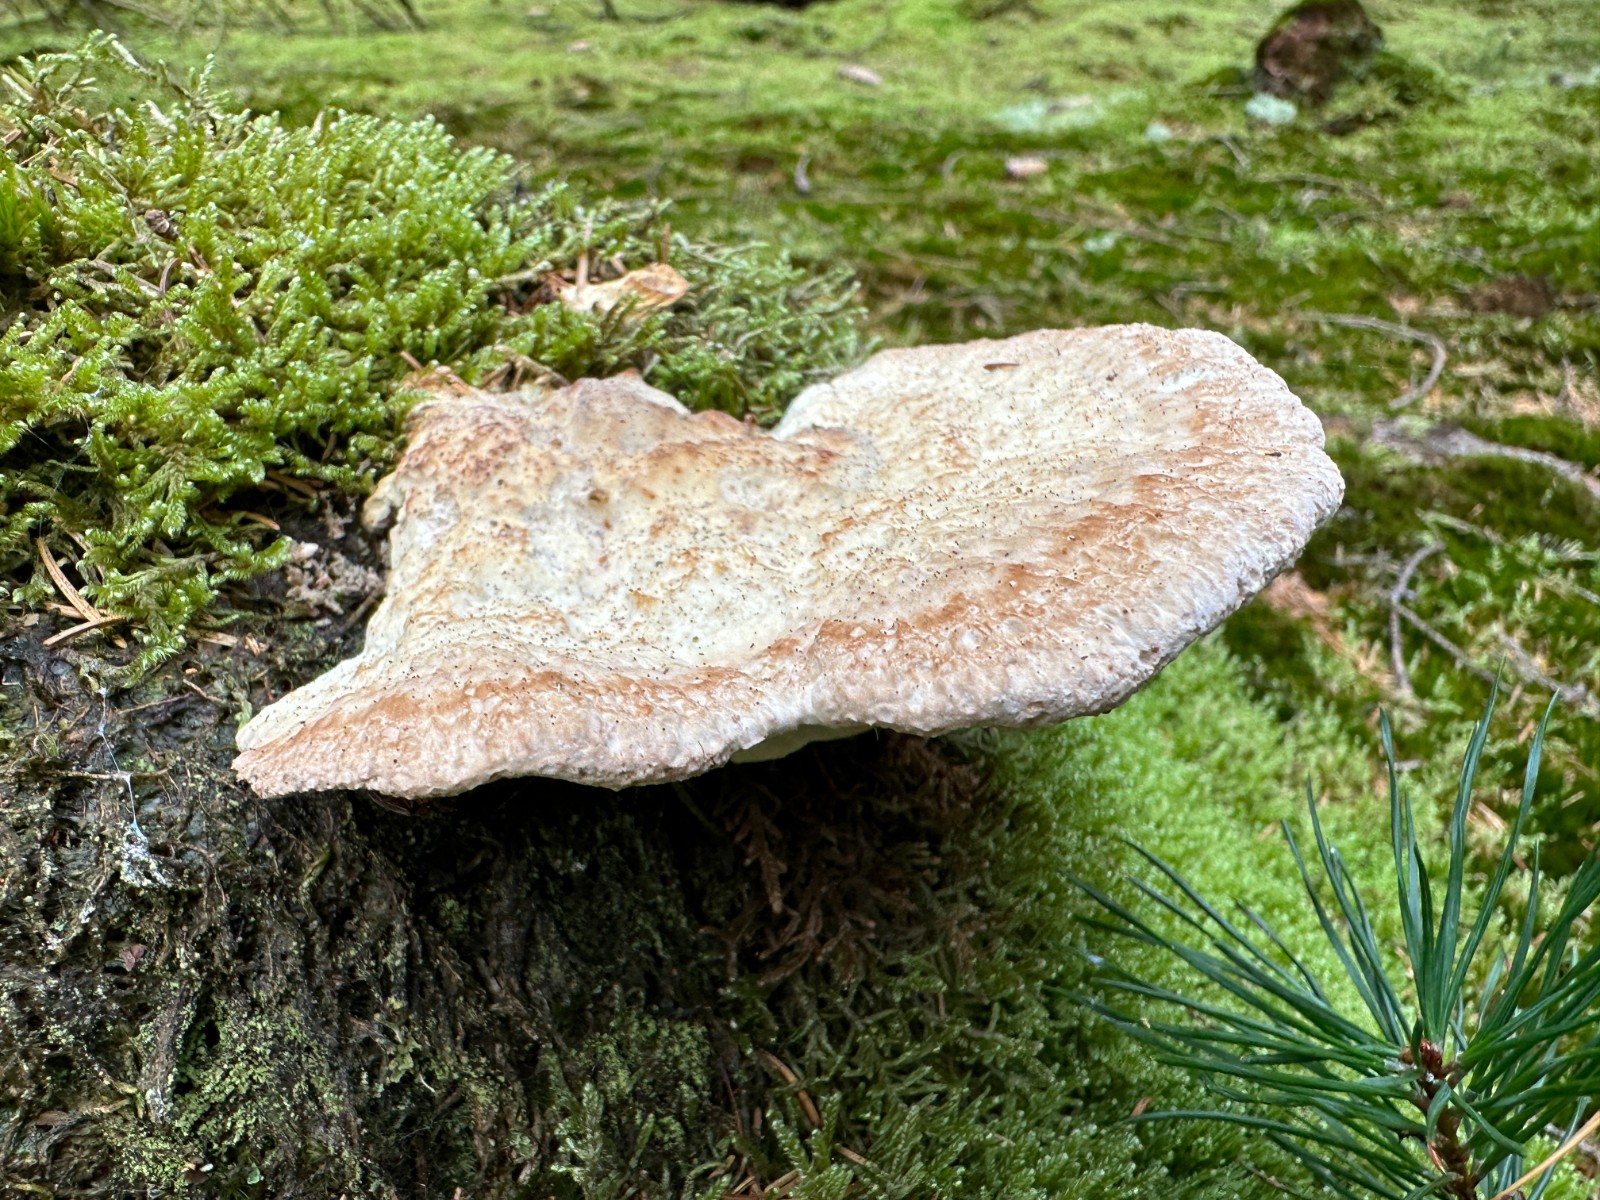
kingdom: Fungi
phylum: Basidiomycota
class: Agaricomycetes
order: Polyporales
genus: Calcipostia
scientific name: Calcipostia guttulata
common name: dråbe-kødporesvamp
